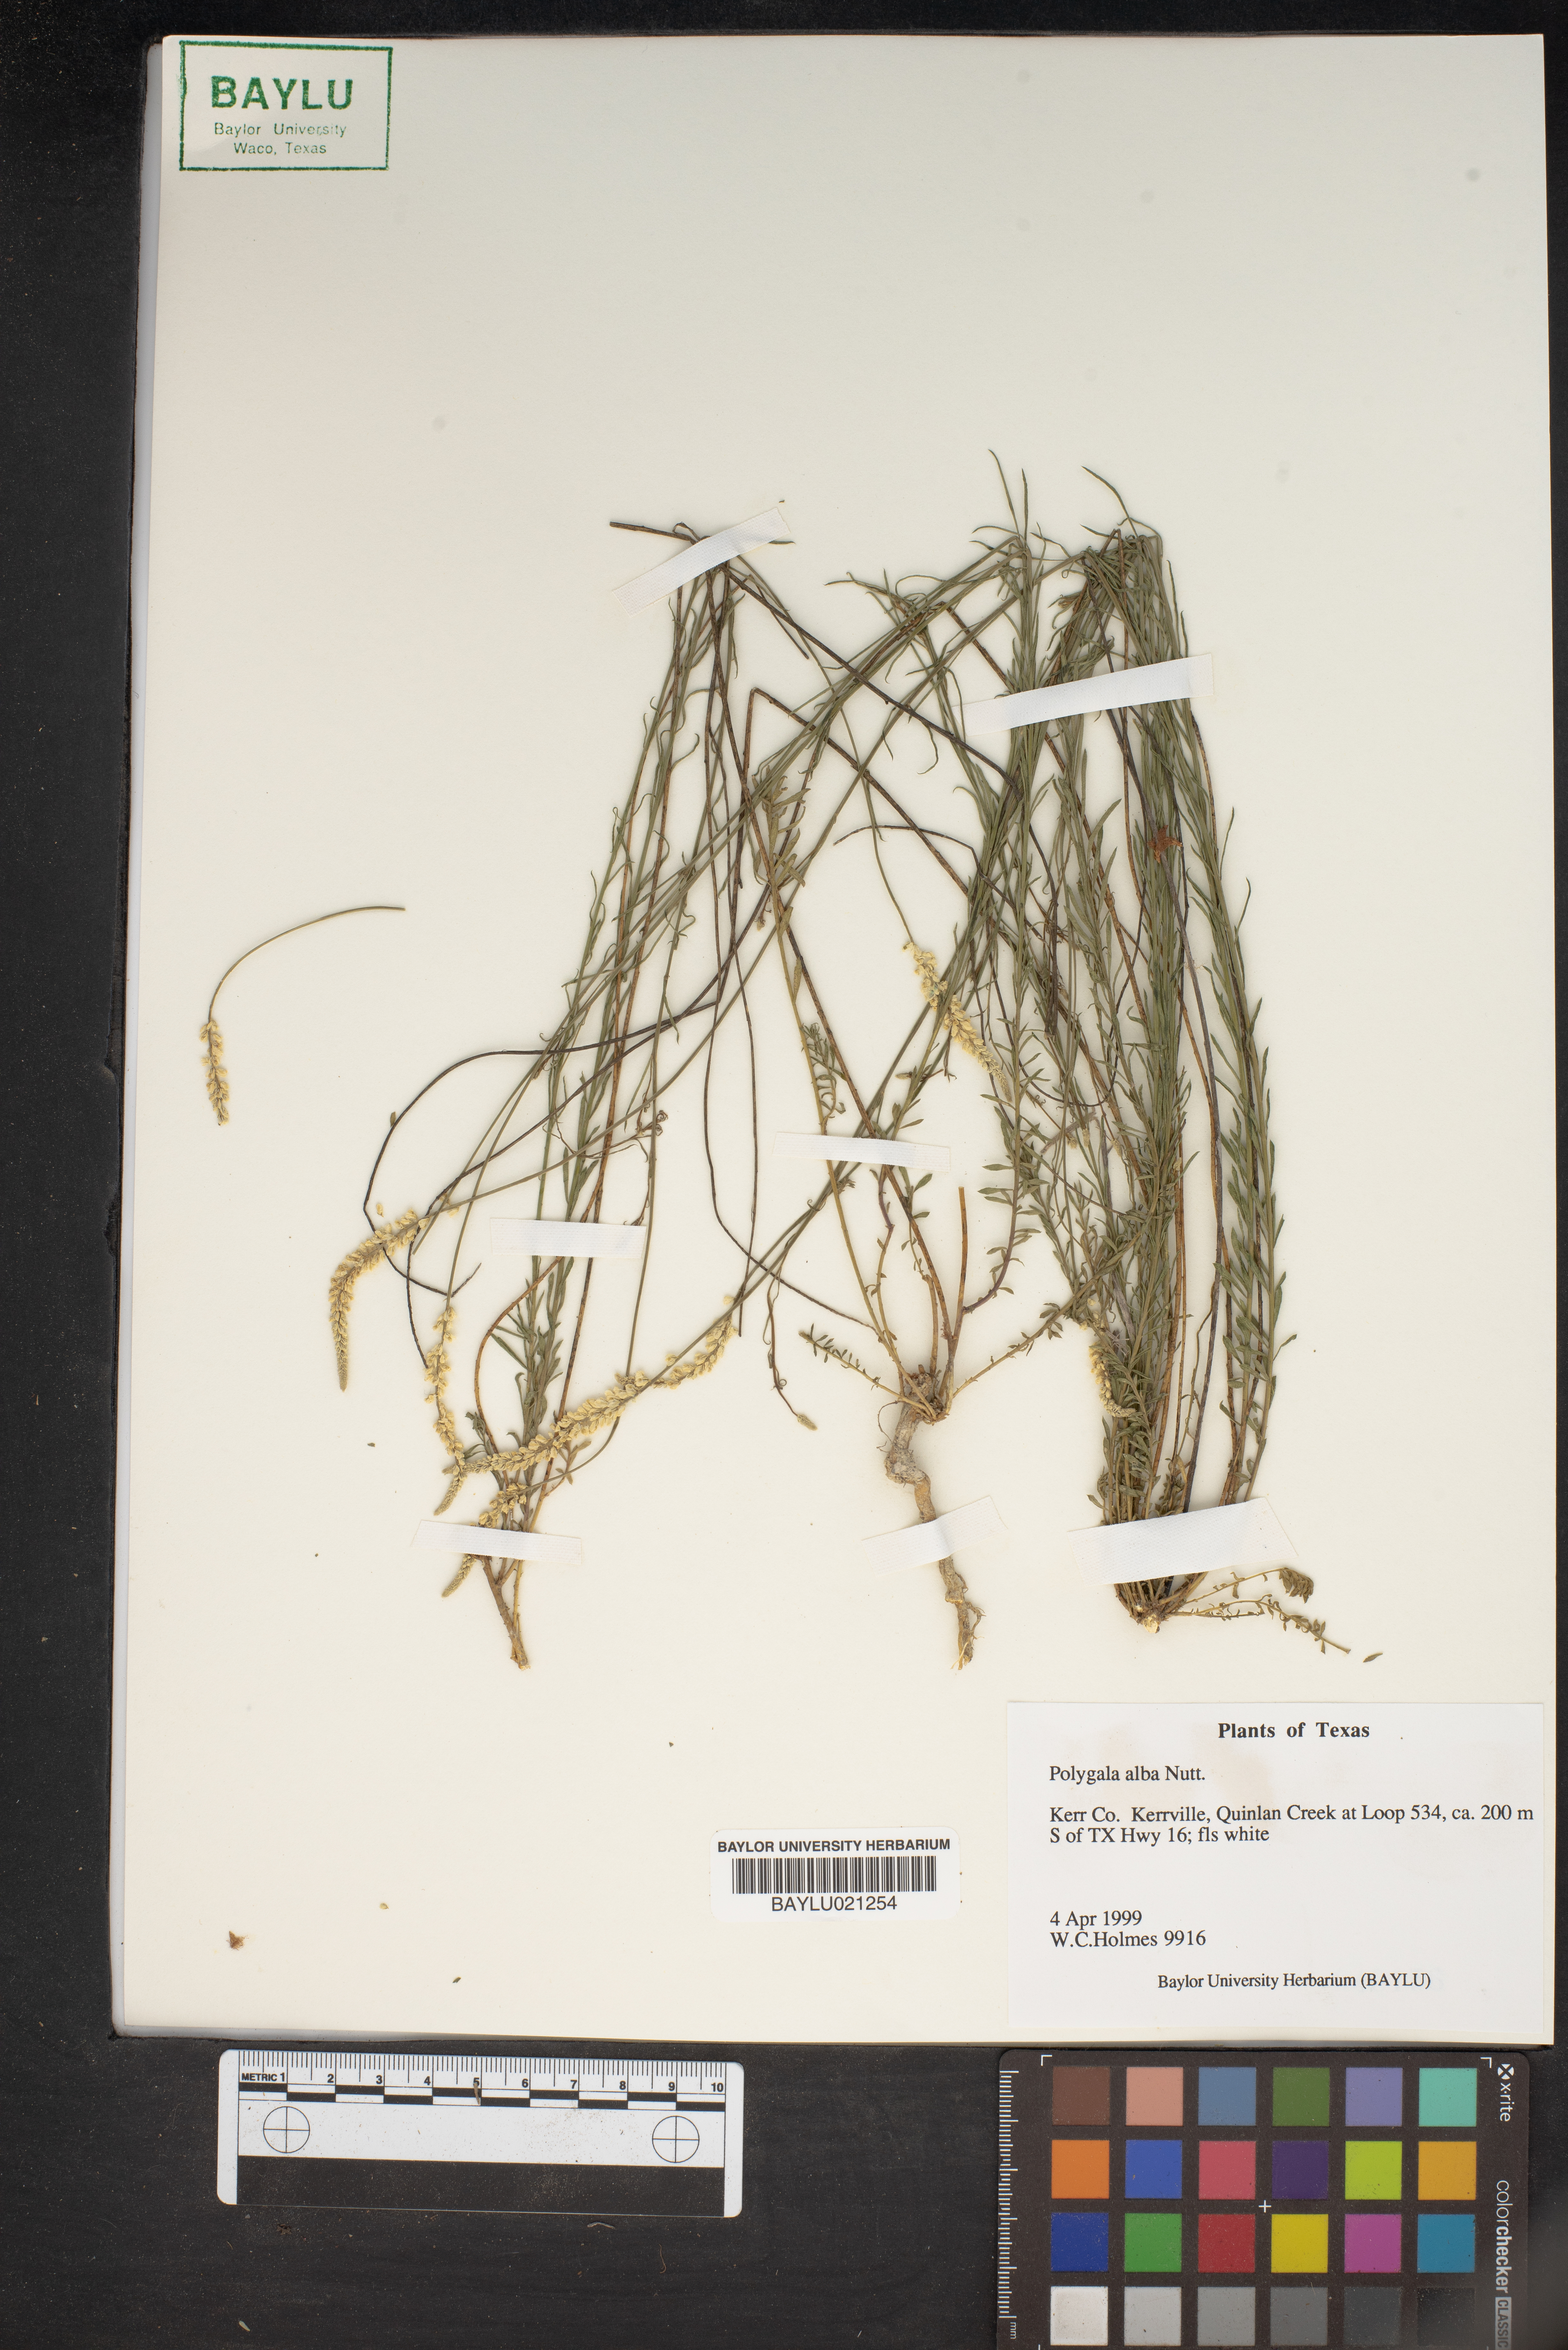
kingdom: Plantae
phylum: Tracheophyta
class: Magnoliopsida
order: Fabales
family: Polygalaceae
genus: Polygala
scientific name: Polygala alba
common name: White milkwort
